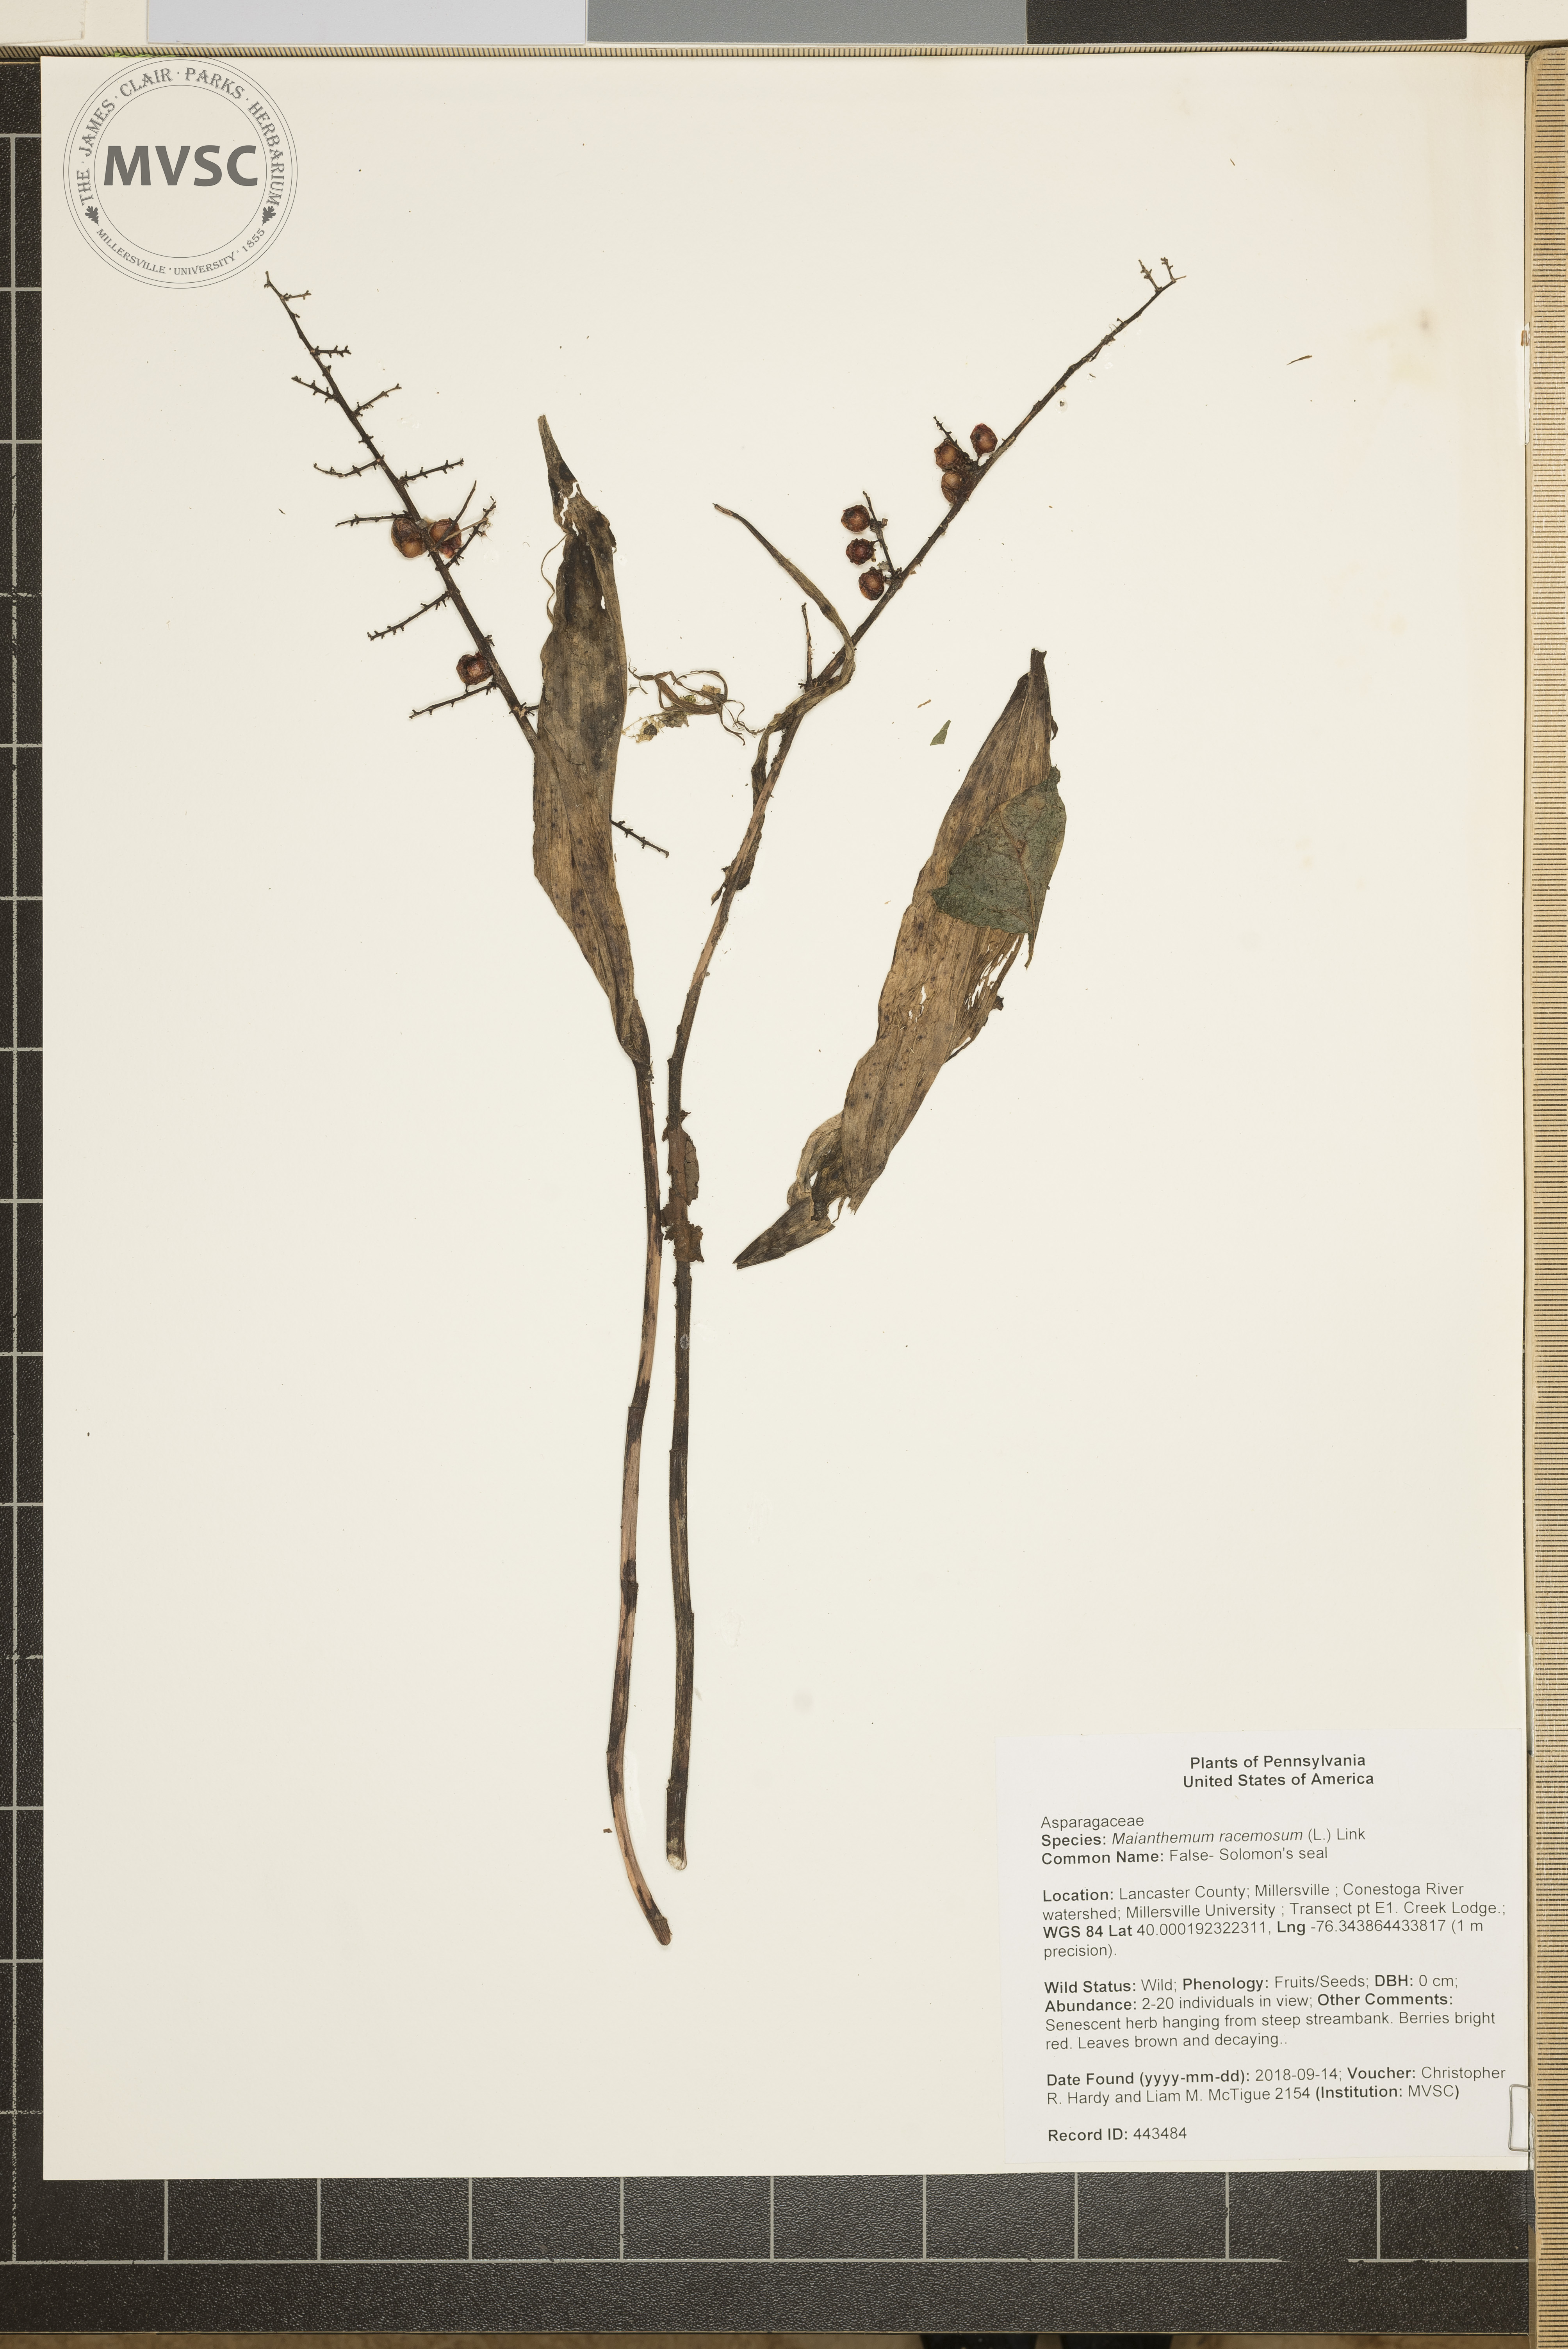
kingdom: Plantae
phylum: Tracheophyta
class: Liliopsida
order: Asparagales
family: Asparagaceae
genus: Maianthemum
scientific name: Maianthemum racemosum
